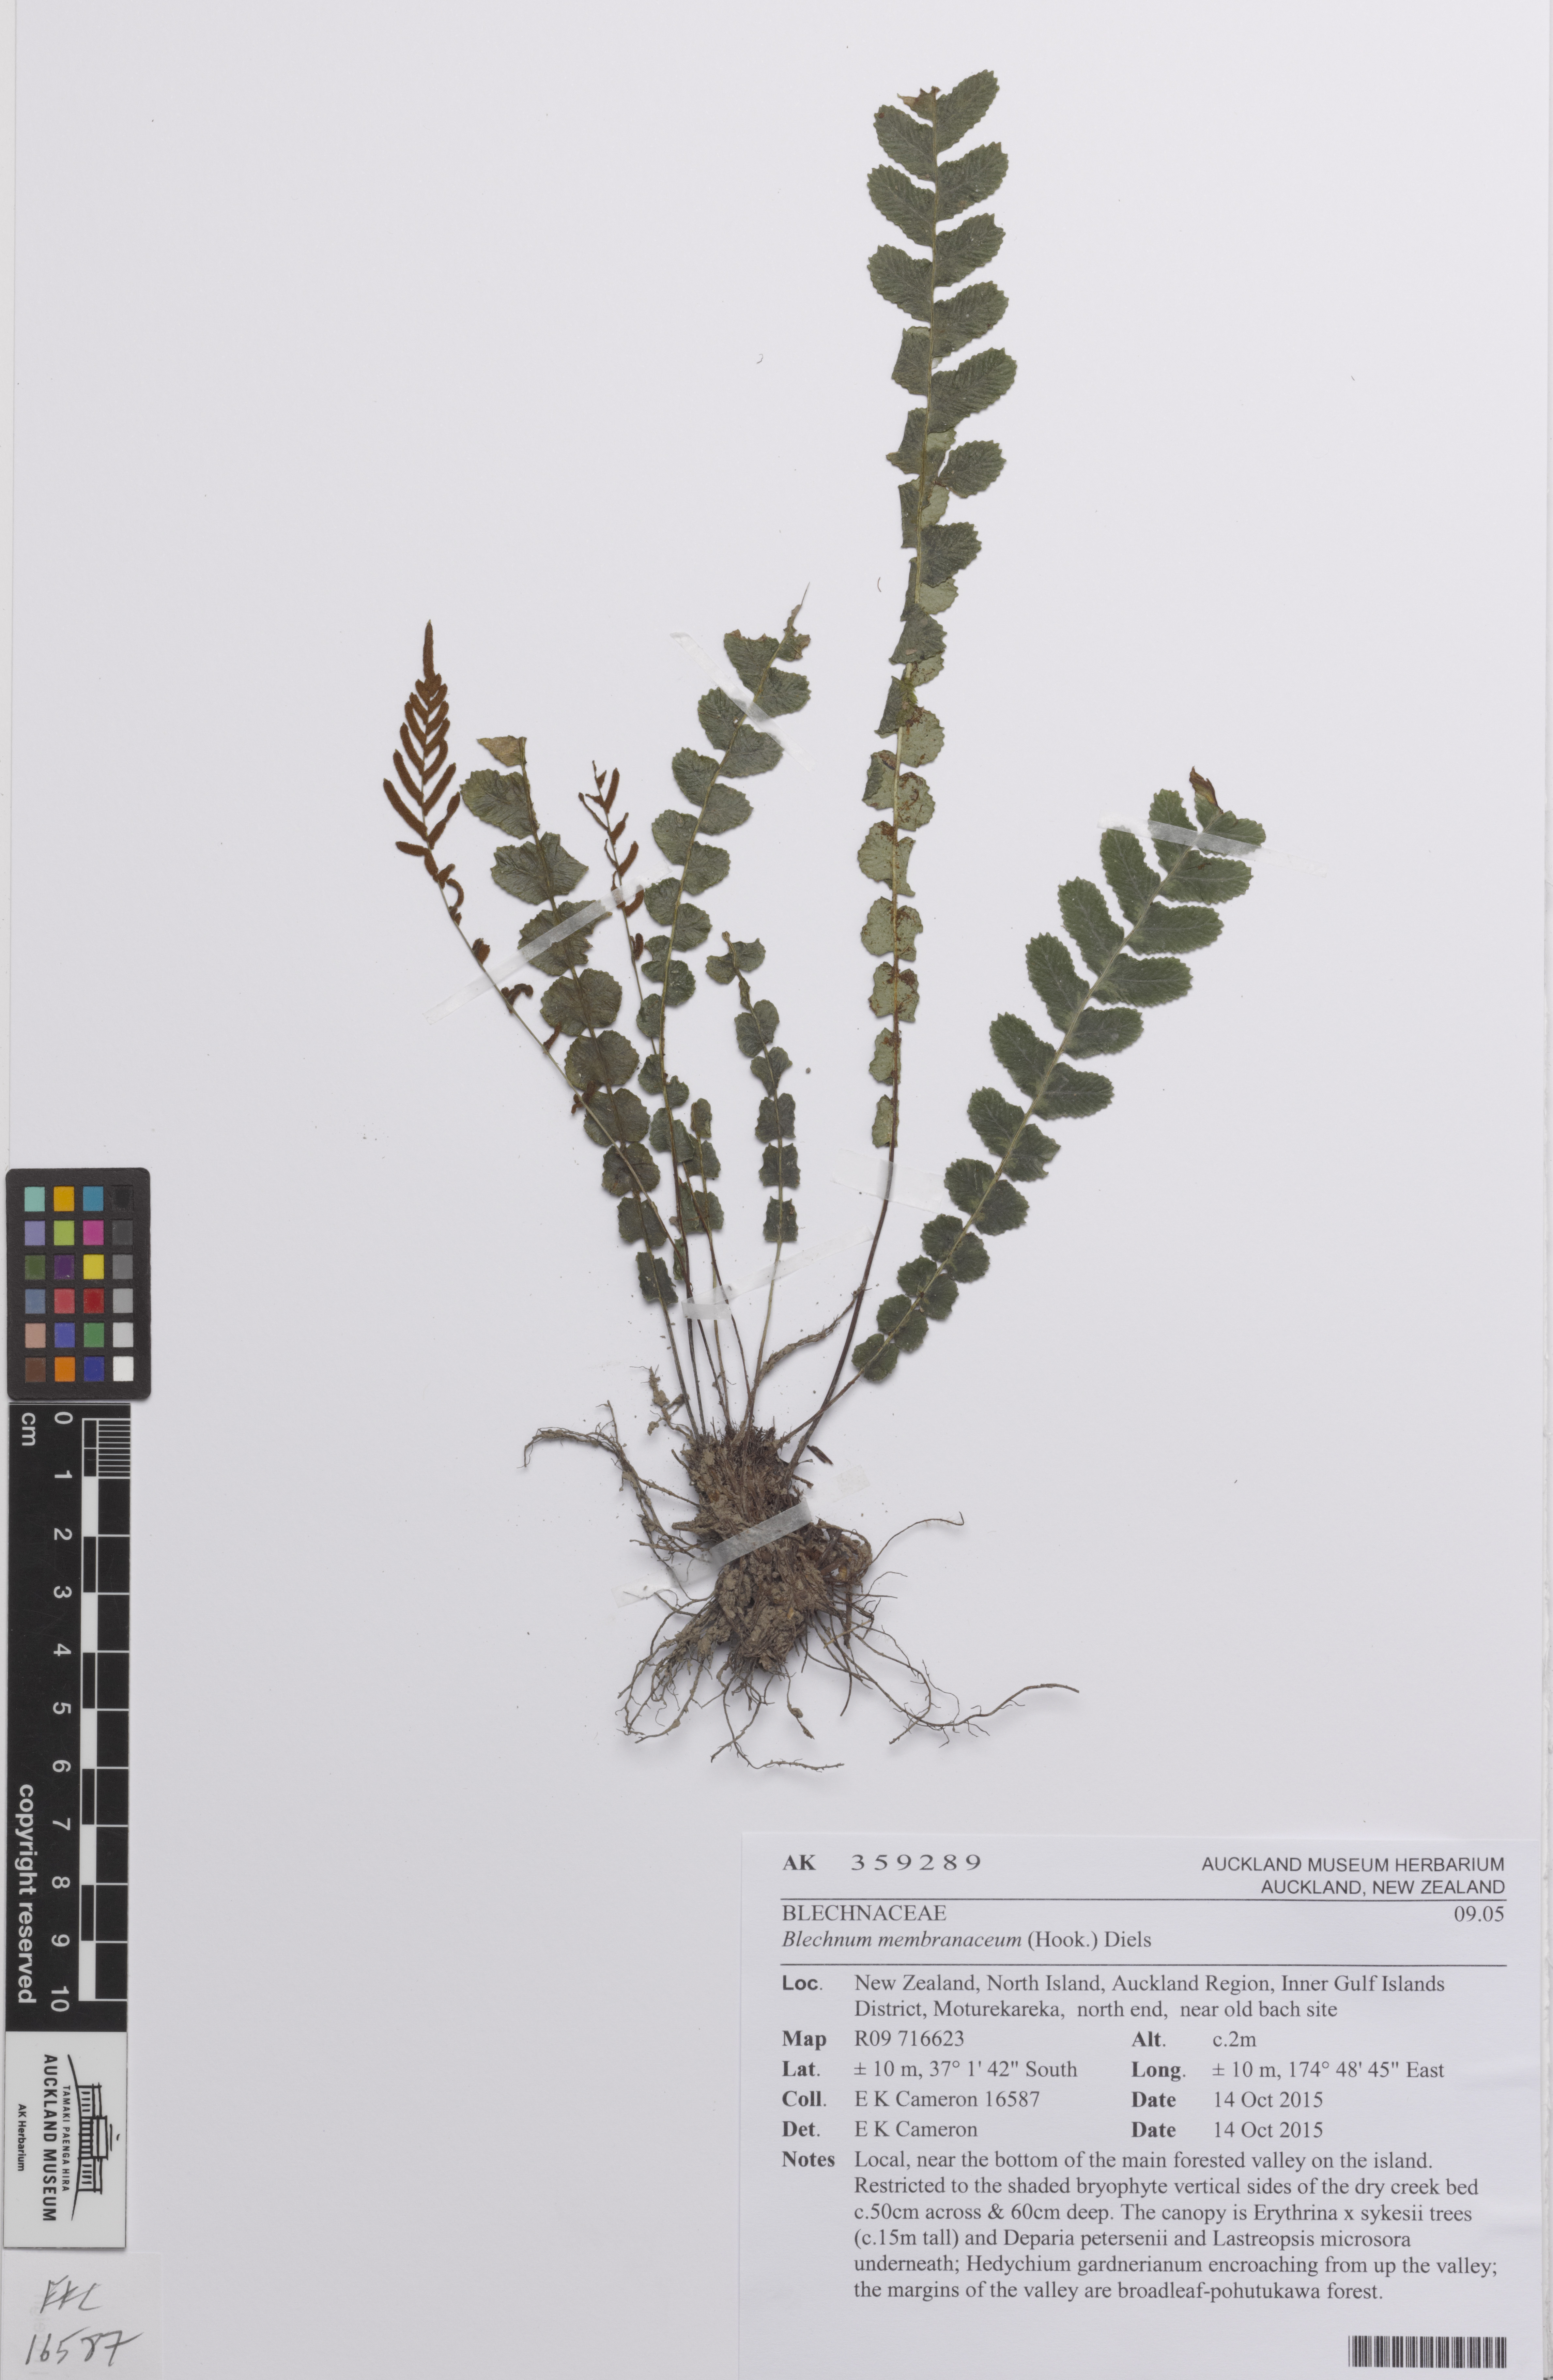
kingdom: Plantae
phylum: Tracheophyta
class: Polypodiopsida
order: Polypodiales
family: Blechnaceae
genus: Austroblechnum
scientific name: Austroblechnum membranaceum
